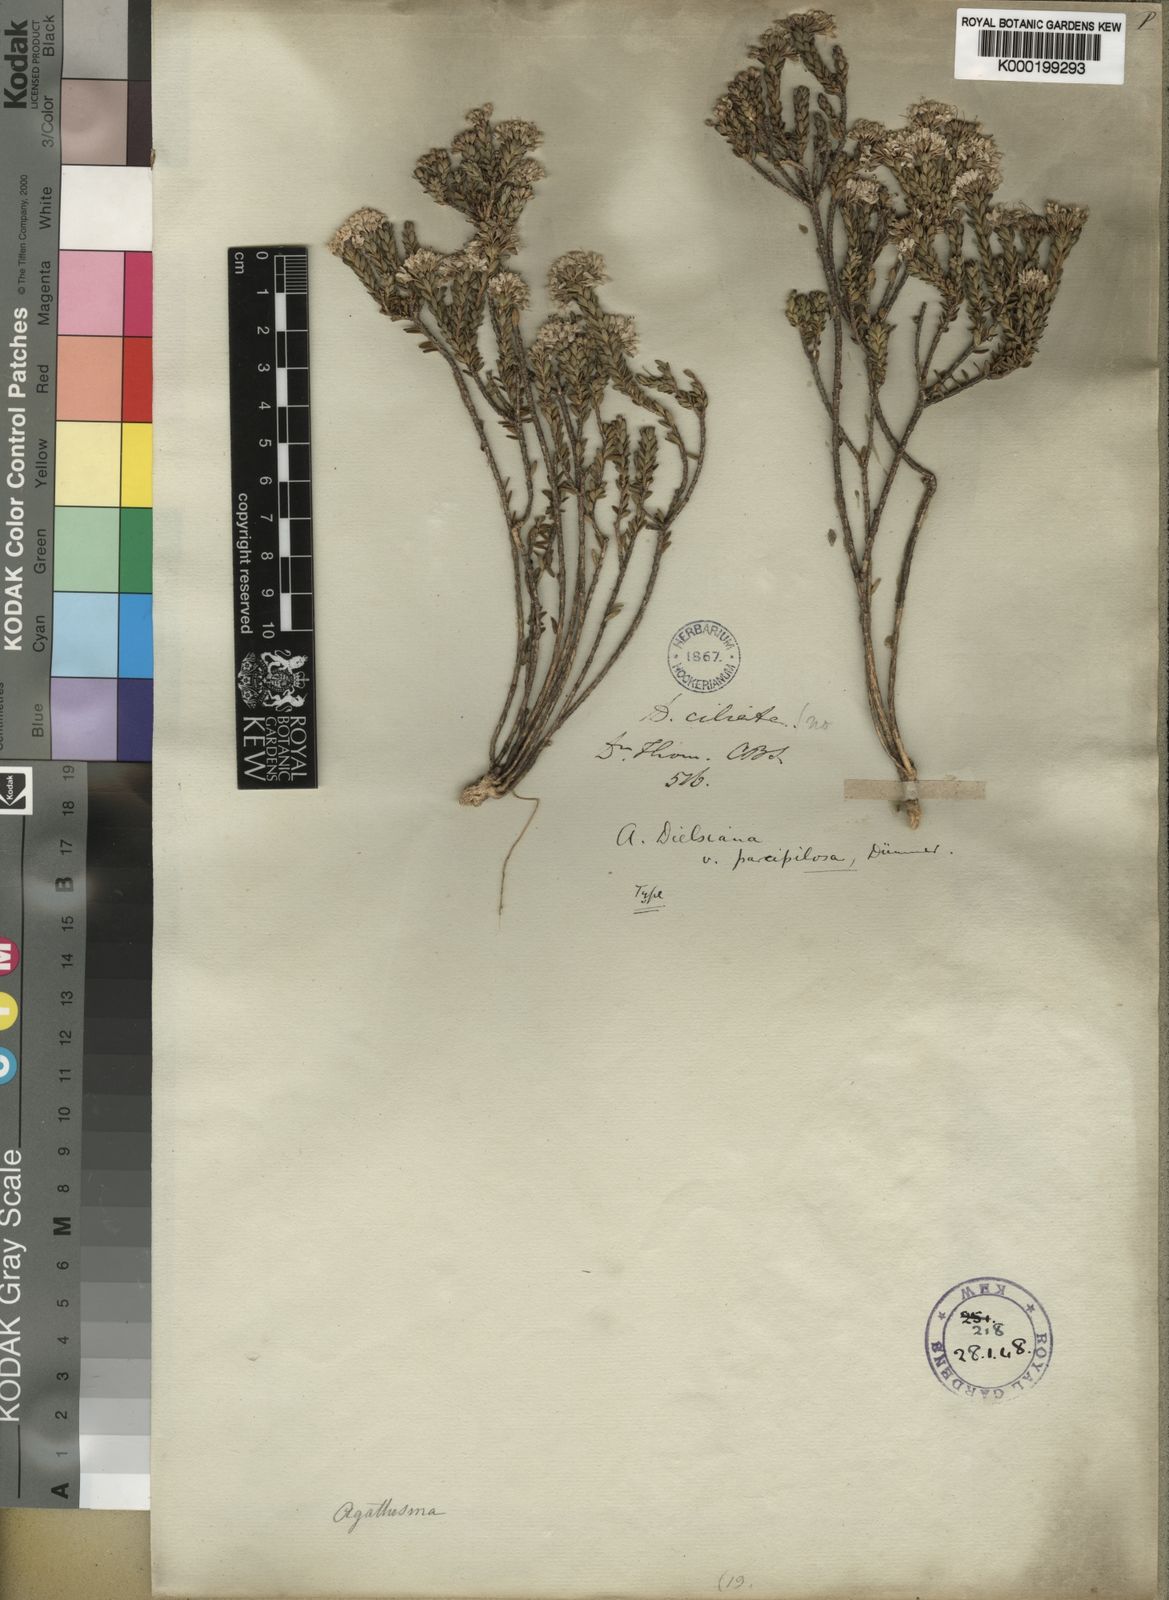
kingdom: Plantae
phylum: Tracheophyta
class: Magnoliopsida
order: Sapindales
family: Rutaceae
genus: Agathosma
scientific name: Agathosma dielsiana
